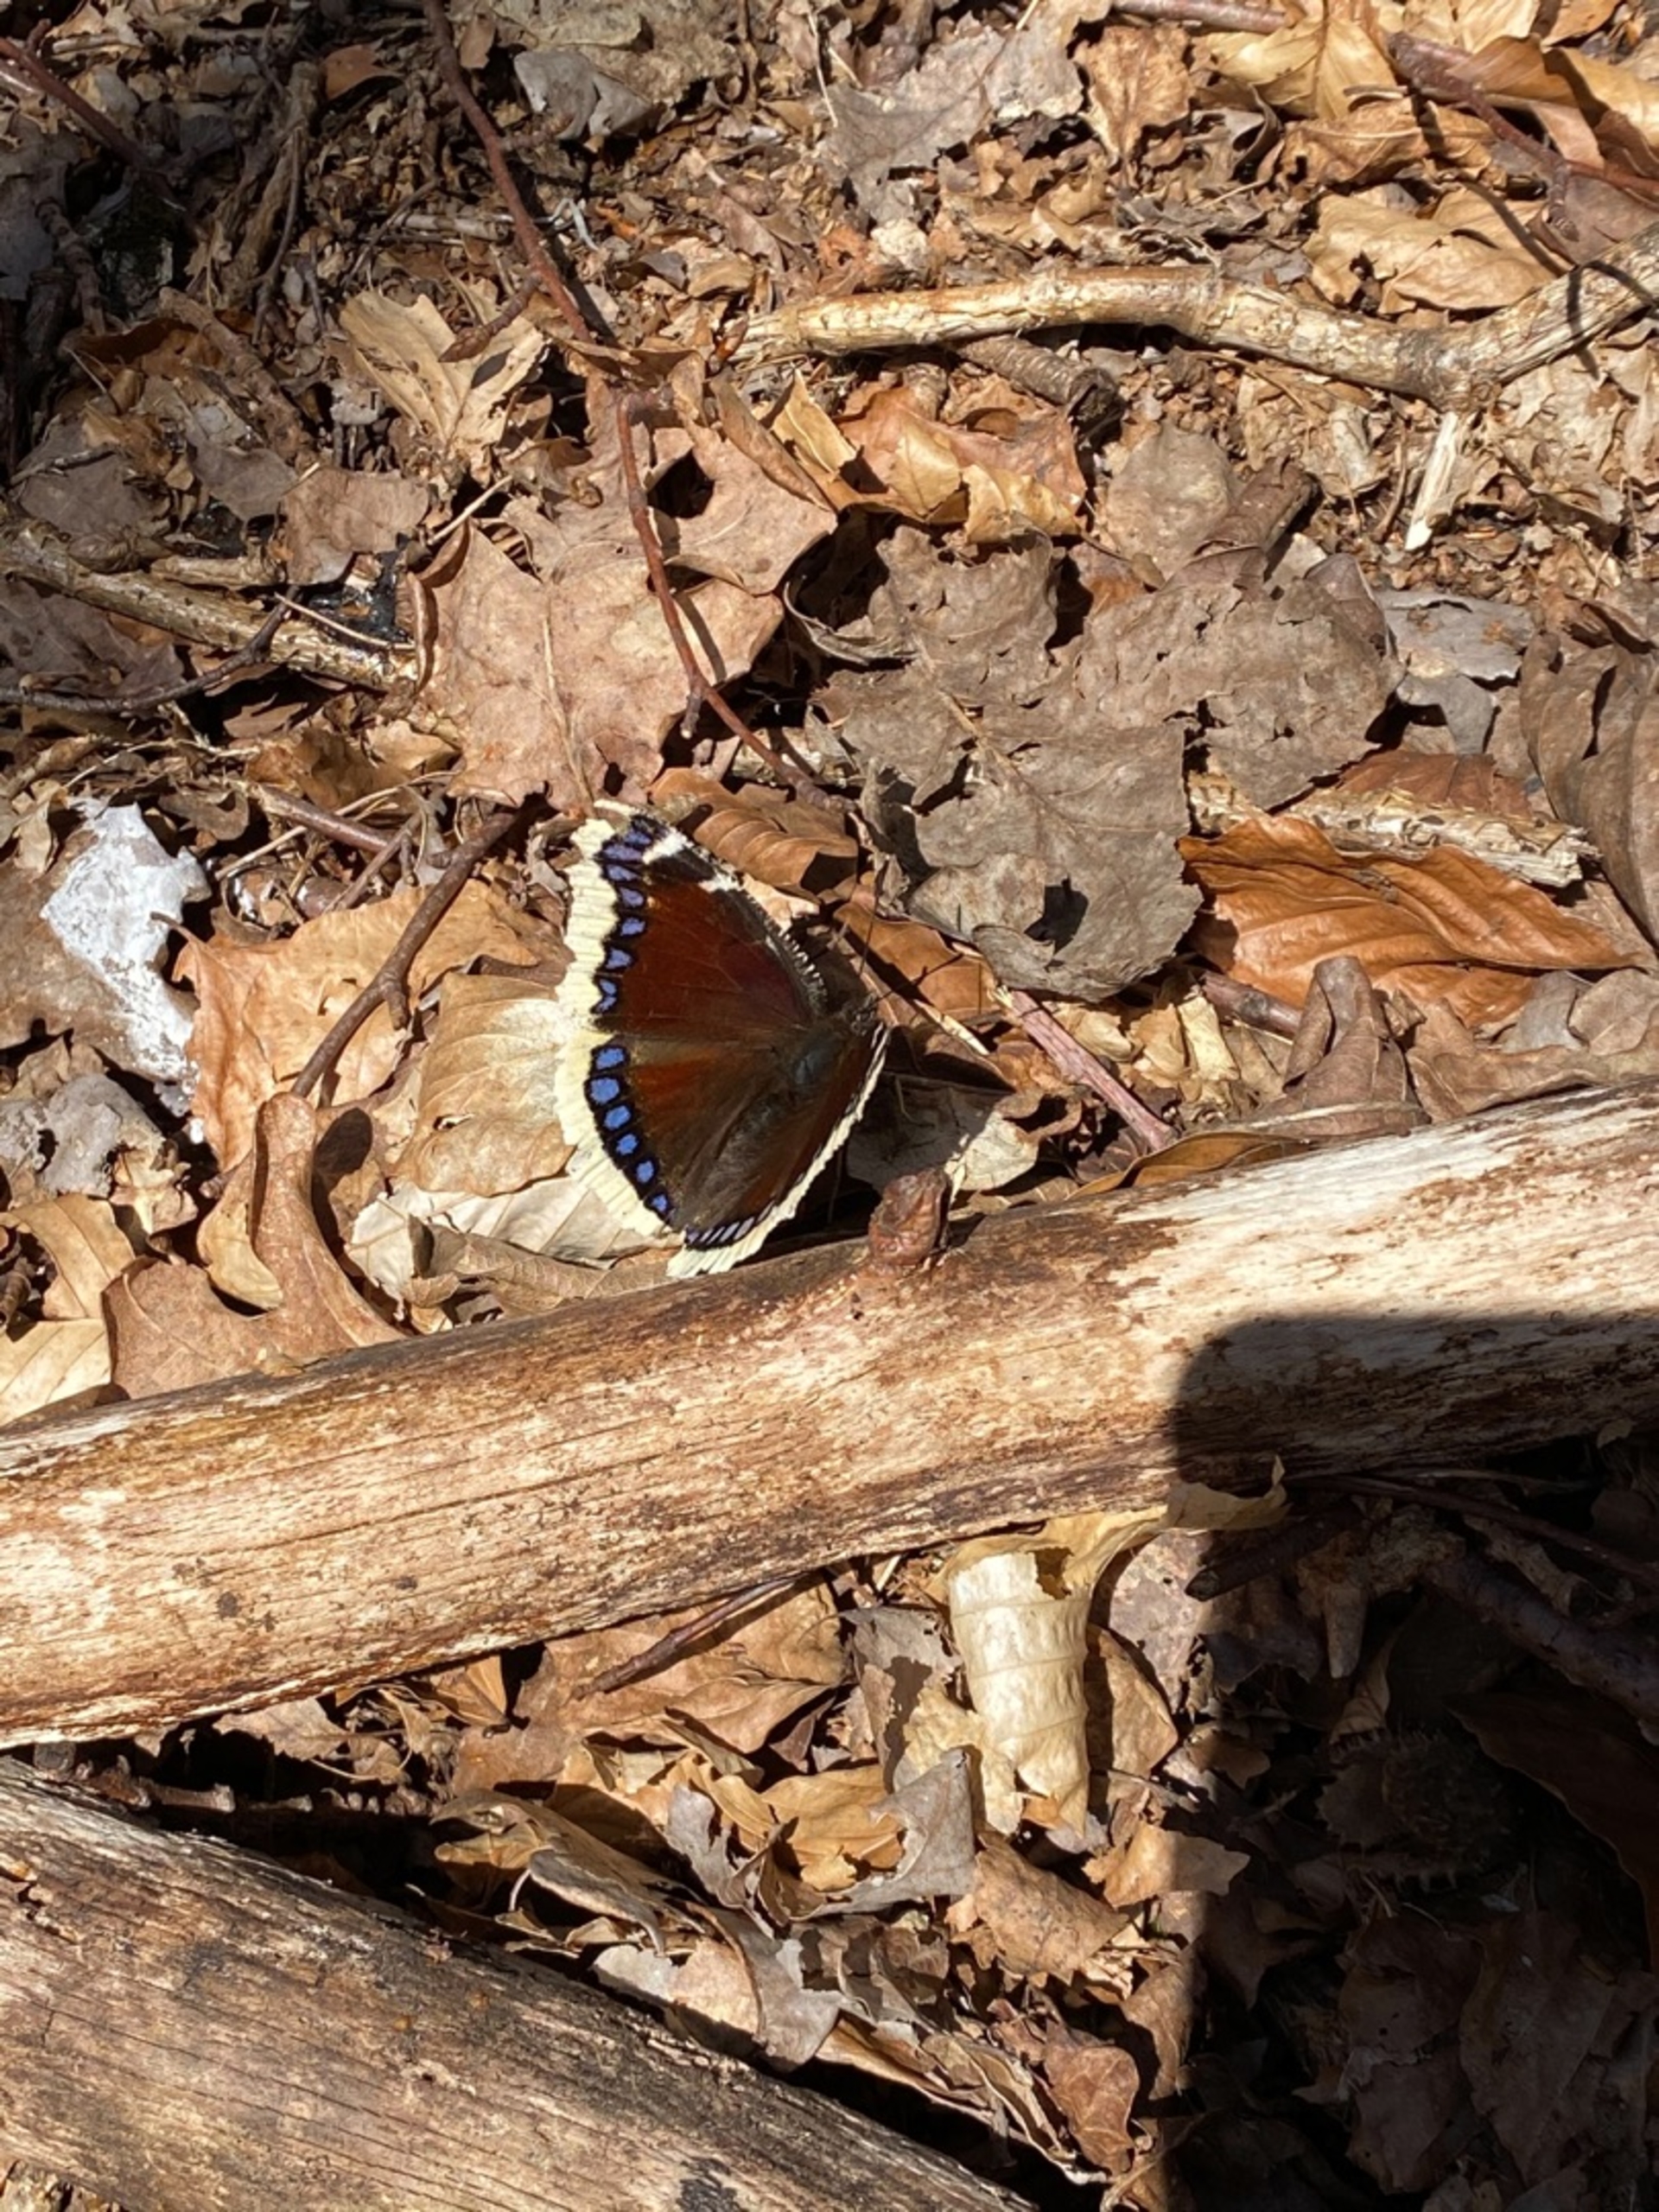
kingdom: Animalia
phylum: Arthropoda
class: Insecta
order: Lepidoptera
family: Nymphalidae
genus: Nymphalis
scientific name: Nymphalis antiopa
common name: Sørgekåbe
